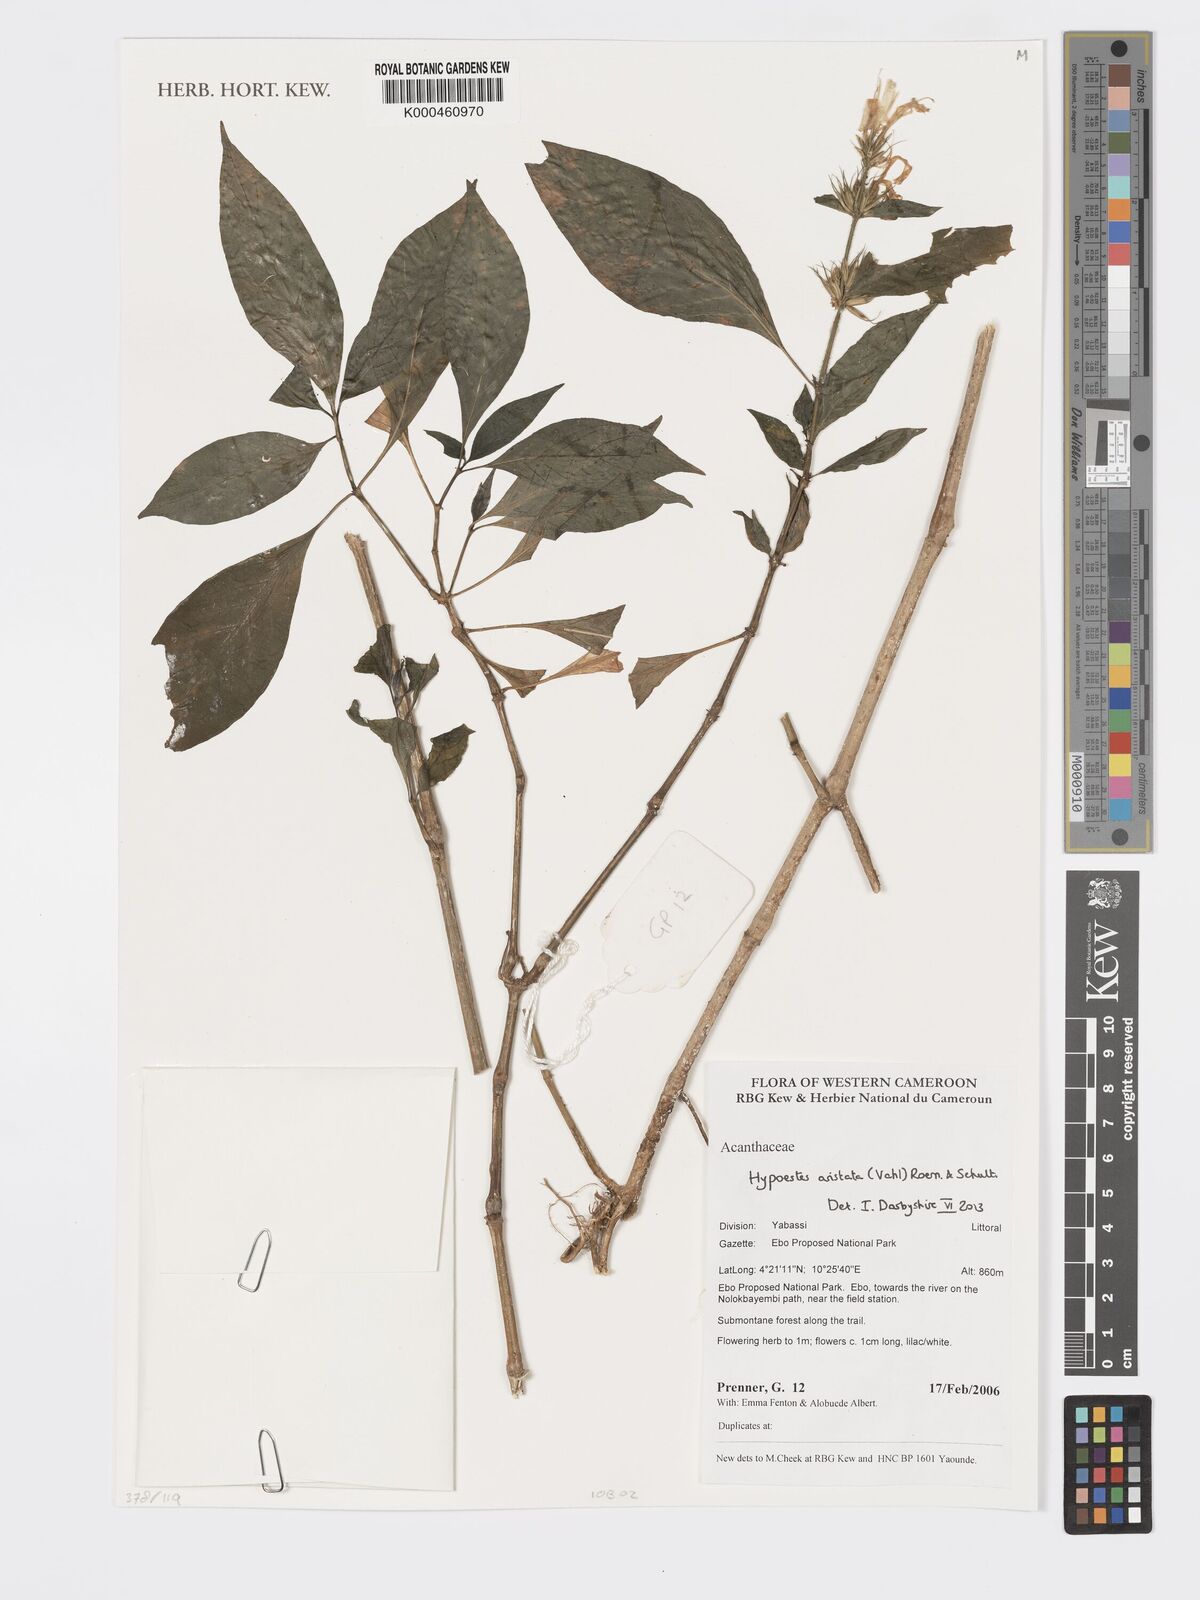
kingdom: Plantae
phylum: Tracheophyta
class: Magnoliopsida
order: Lamiales
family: Acanthaceae
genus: Hypoestes
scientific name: Hypoestes aristata
